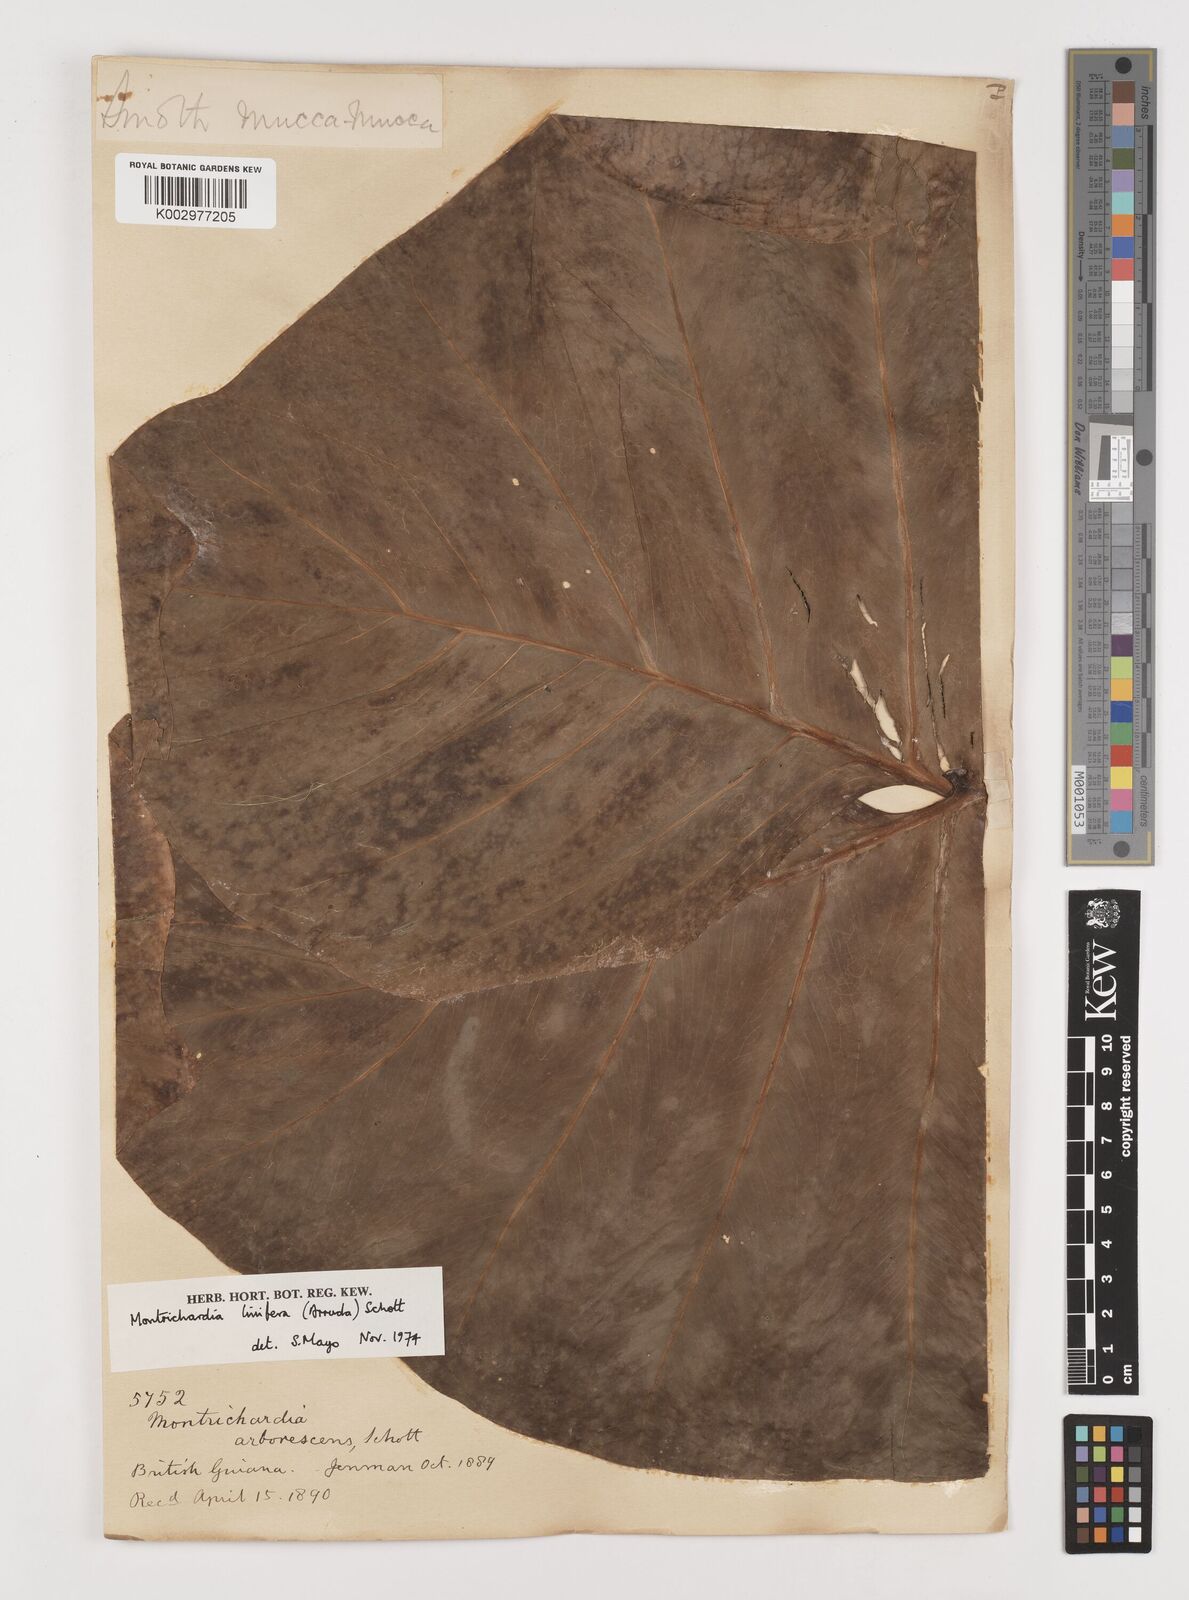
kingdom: Plantae
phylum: Tracheophyta
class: Liliopsida
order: Alismatales
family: Araceae
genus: Montrichardia
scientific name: Montrichardia linifera
